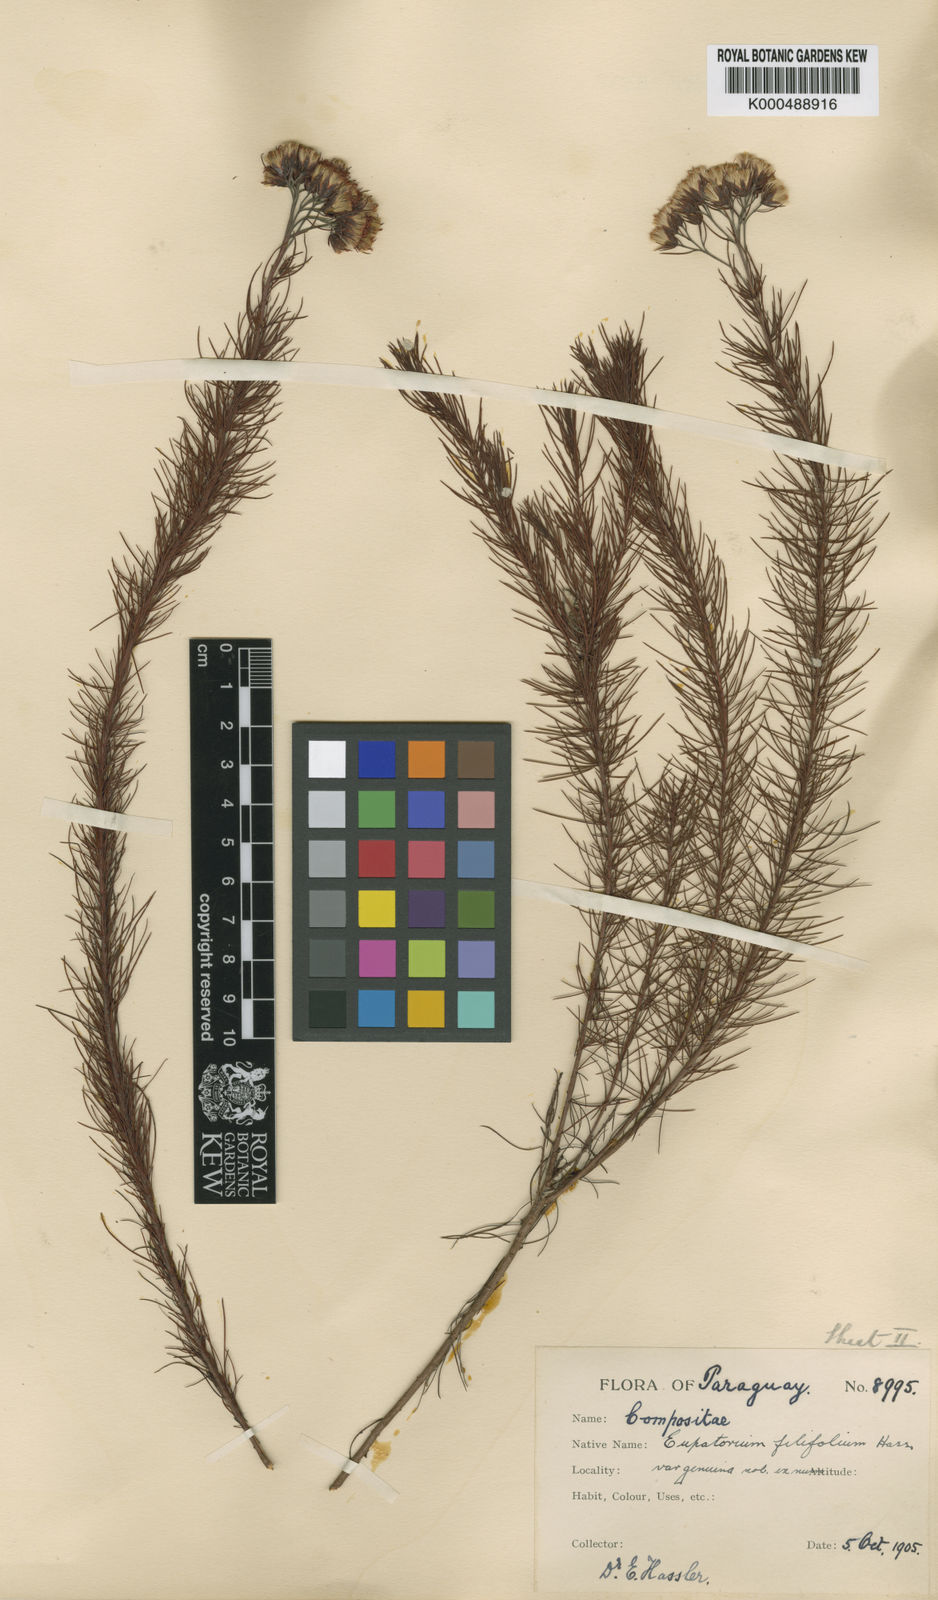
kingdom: Plantae
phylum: Tracheophyta
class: Magnoliopsida
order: Asterales
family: Asteraceae
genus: Disynaphia
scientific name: Disynaphia filifolia
